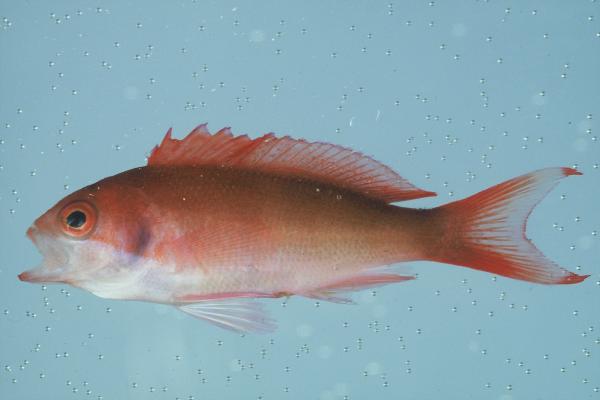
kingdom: Animalia
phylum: Chordata
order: Perciformes
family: Serranidae
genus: Pseudanthias
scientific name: Pseudanthias cooperi
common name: Red basslet
